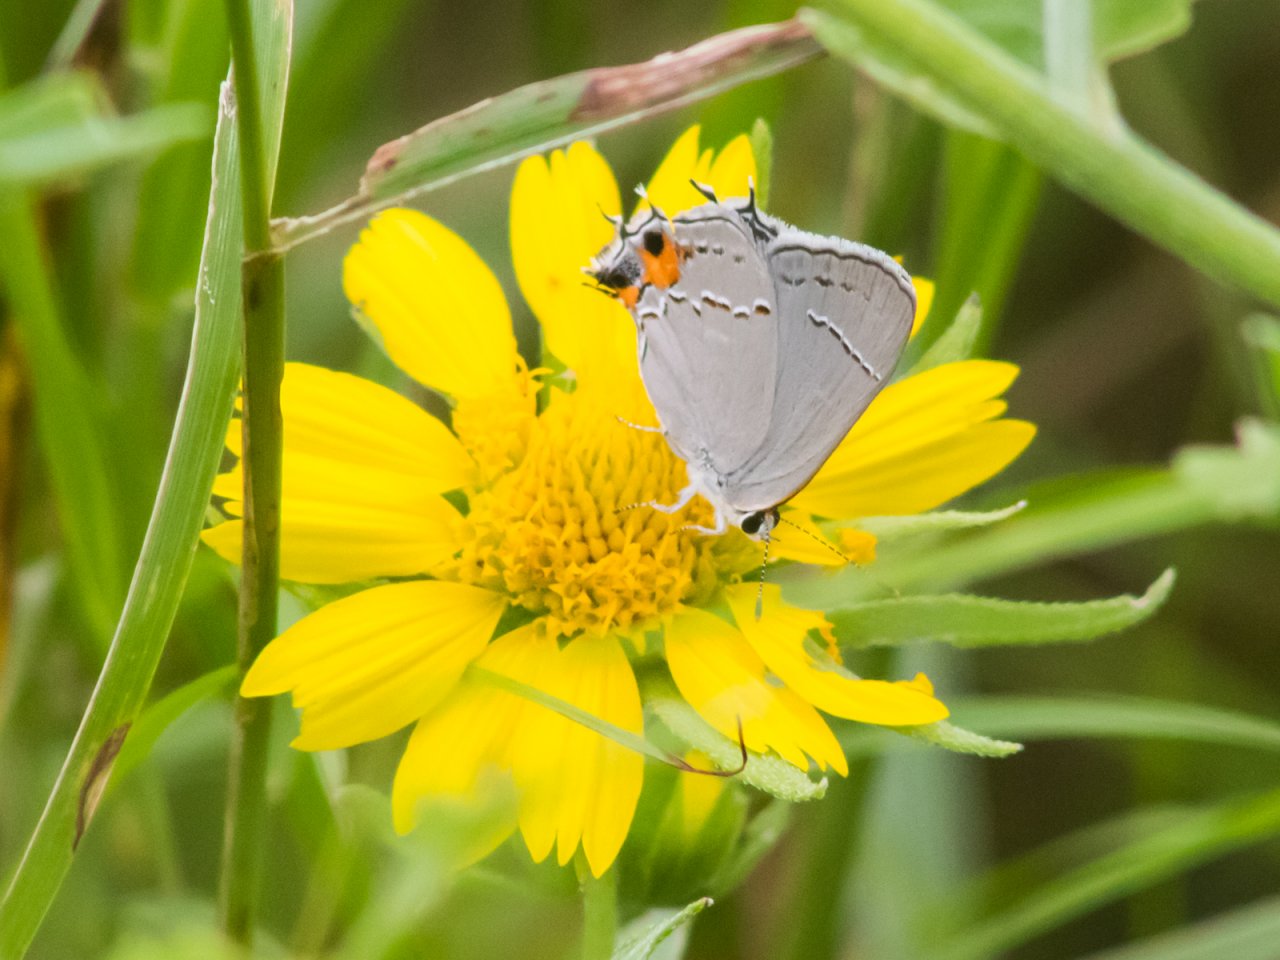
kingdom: Animalia
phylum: Arthropoda
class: Insecta
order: Lepidoptera
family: Lycaenidae
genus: Strymon
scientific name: Strymon melinus
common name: Gray Hairstreak
